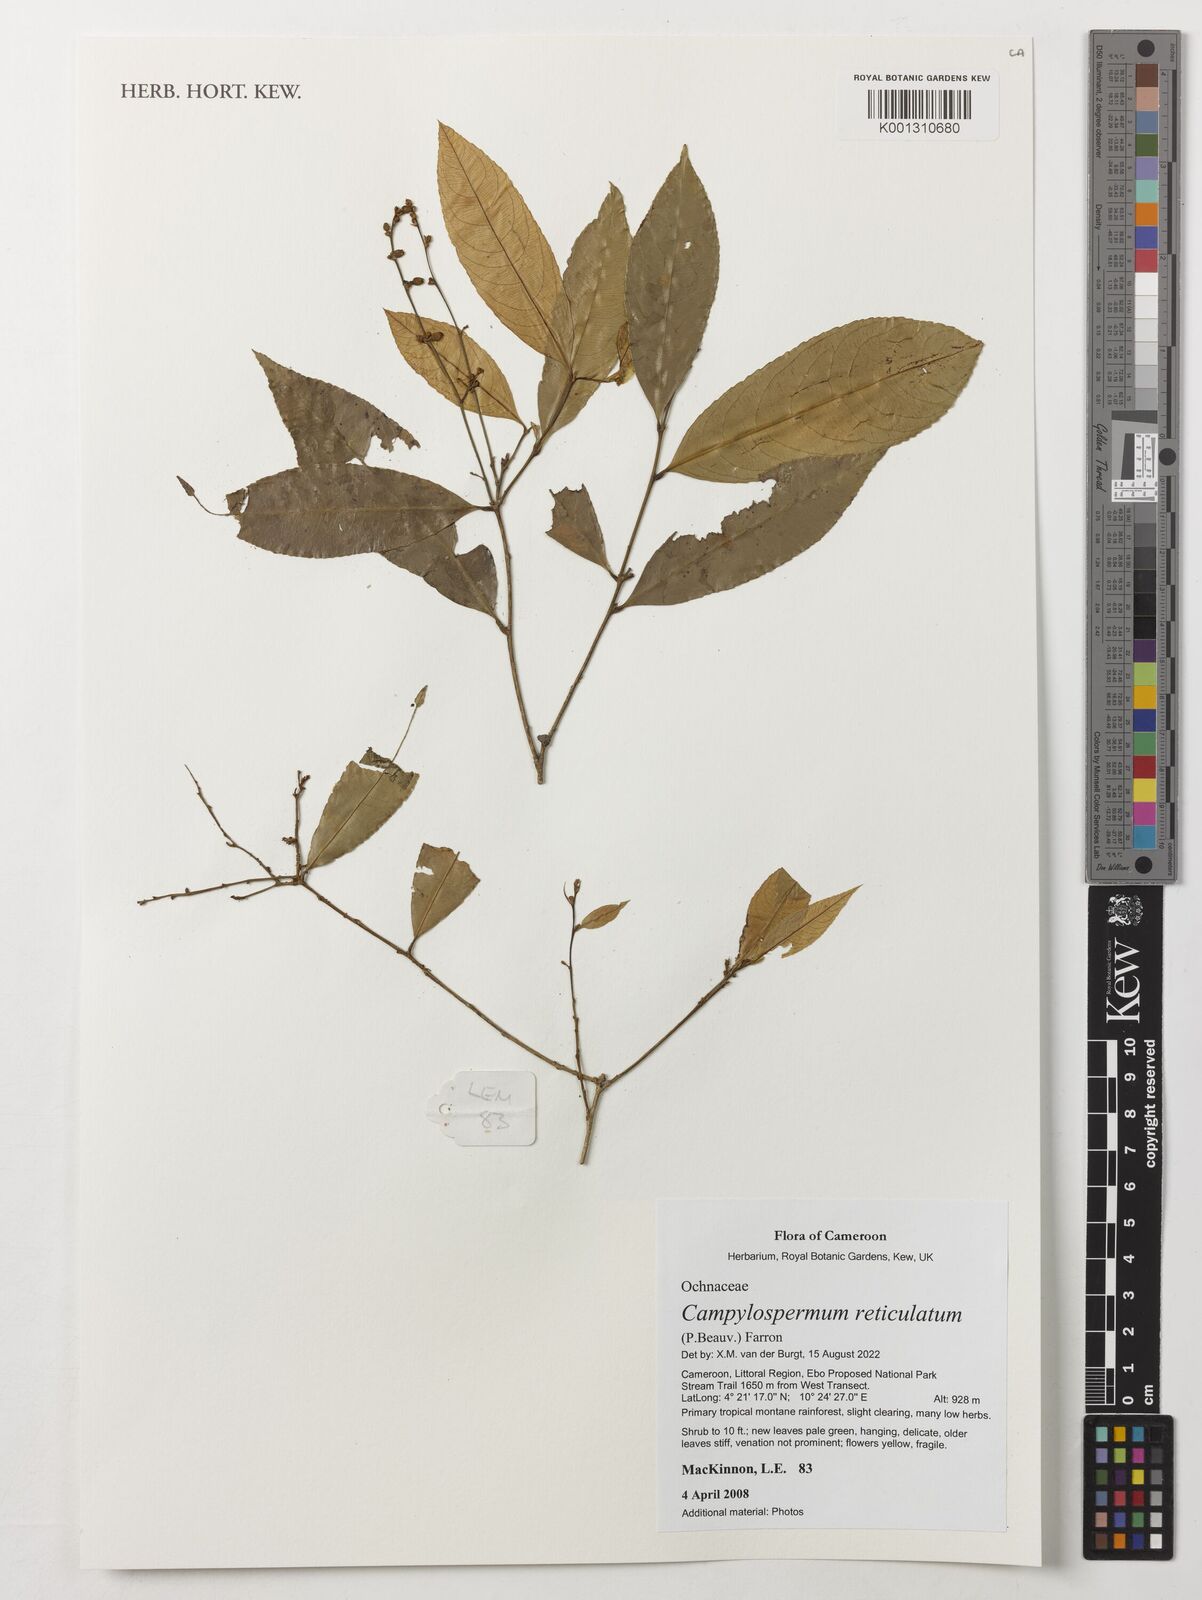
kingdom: Plantae
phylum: Tracheophyta
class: Magnoliopsida
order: Malpighiales
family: Ochnaceae
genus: Campylospermum
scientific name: Campylospermum reticulatum
